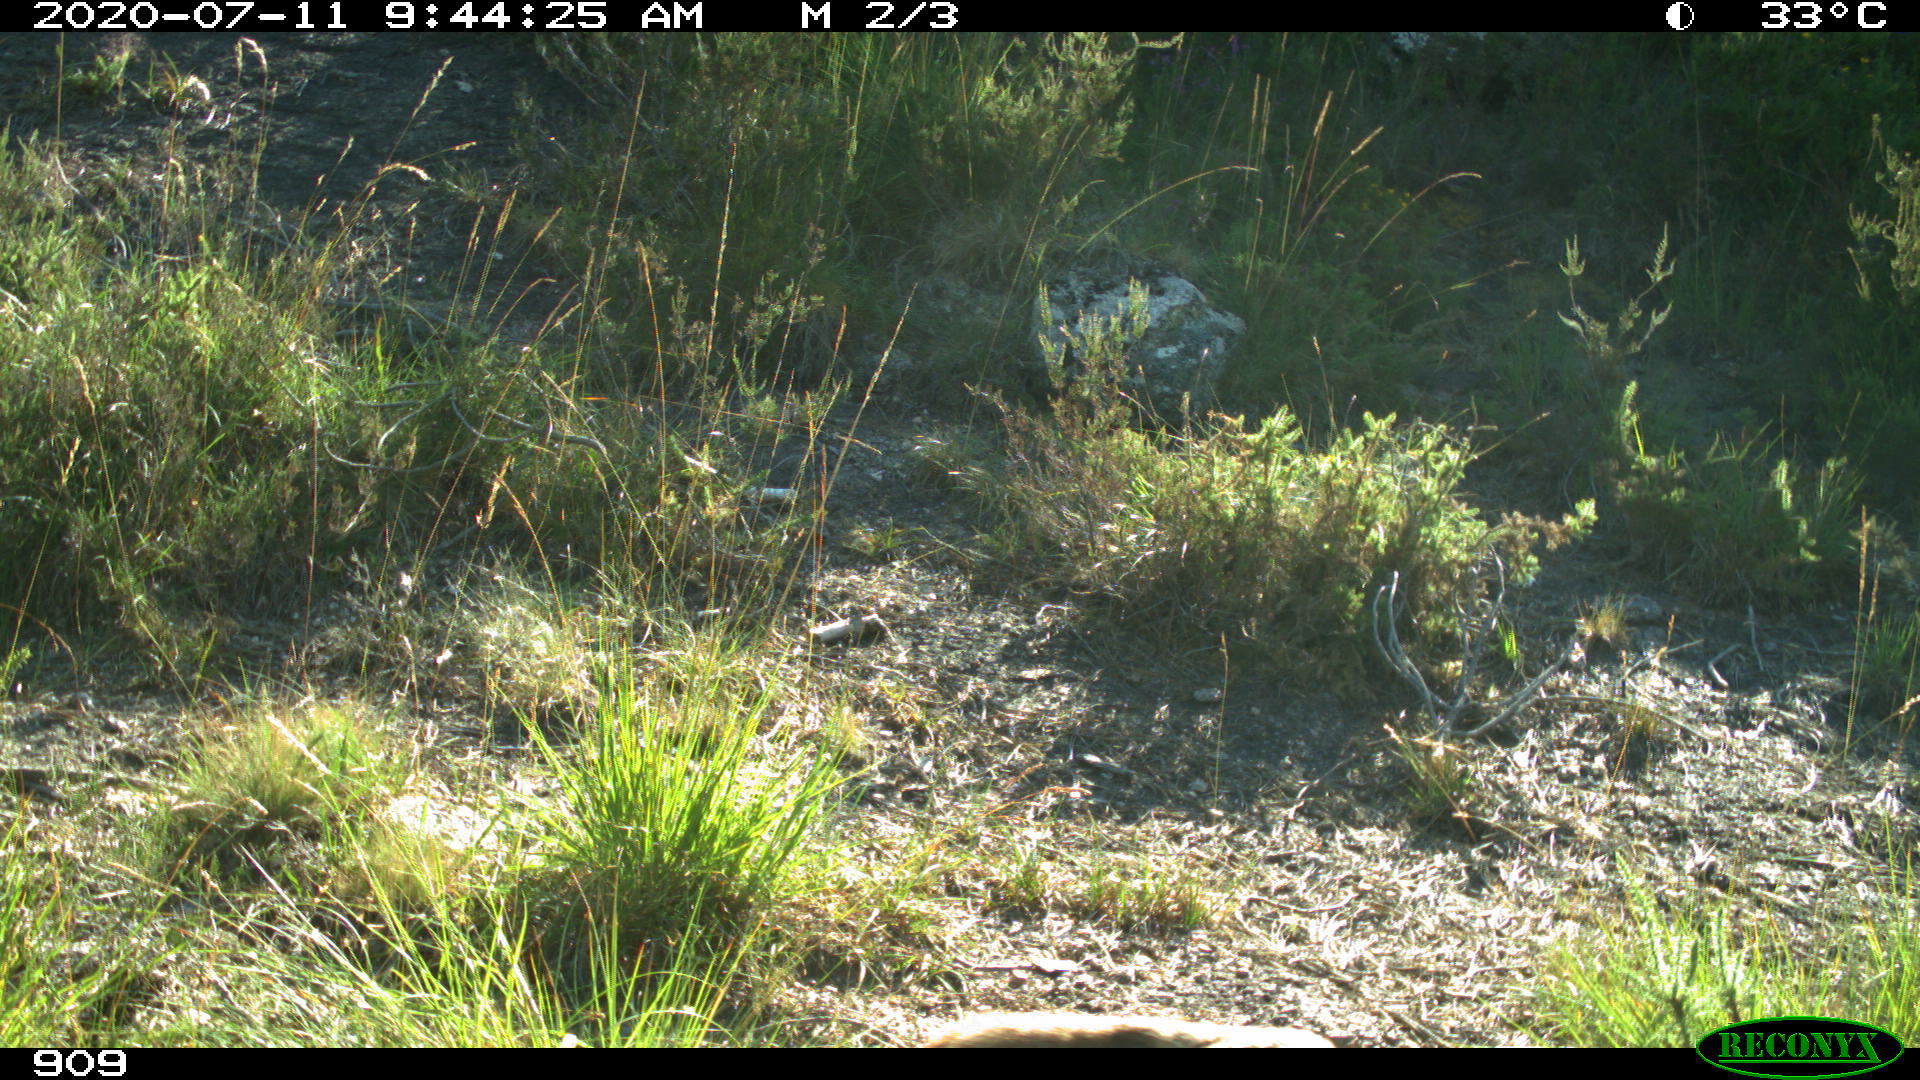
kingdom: Animalia
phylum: Chordata
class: Mammalia
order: Carnivora
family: Canidae
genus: Vulpes
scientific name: Vulpes vulpes
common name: Red fox
